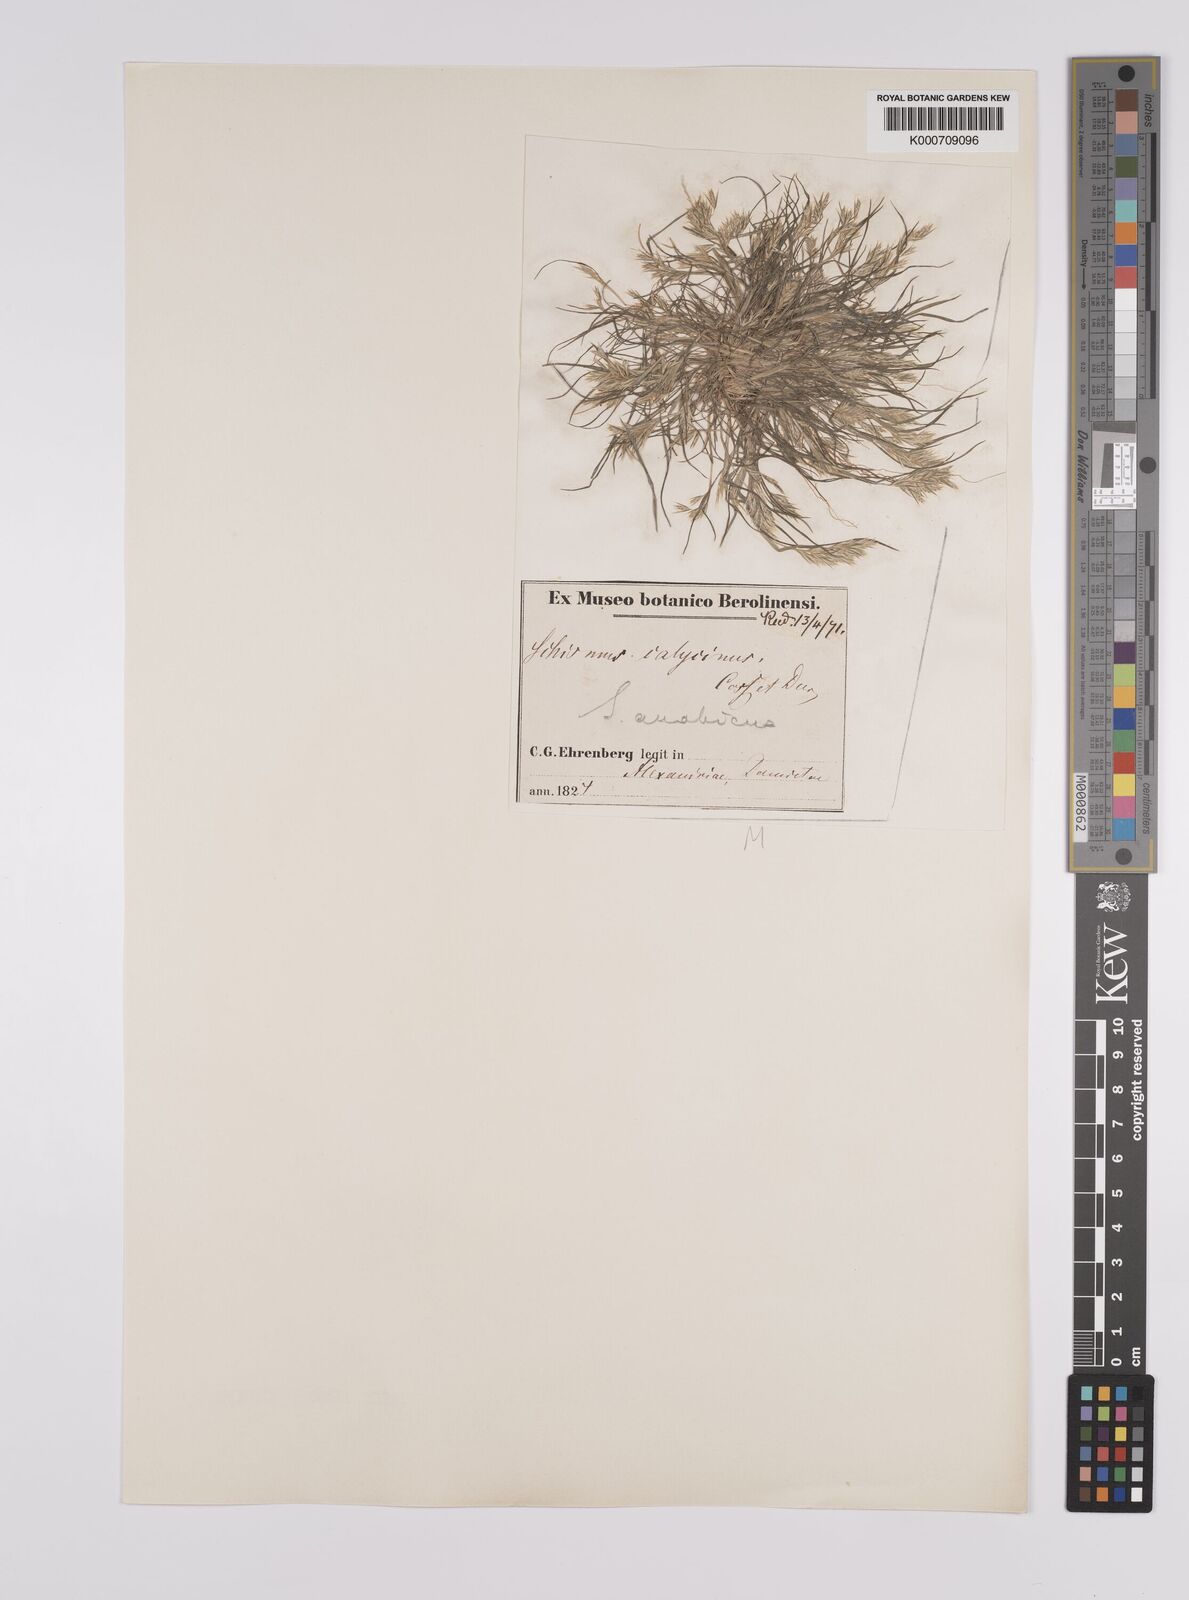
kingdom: Plantae
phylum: Tracheophyta
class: Liliopsida
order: Poales
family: Poaceae
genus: Schismus
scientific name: Schismus arabicus
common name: Arabian schismus
